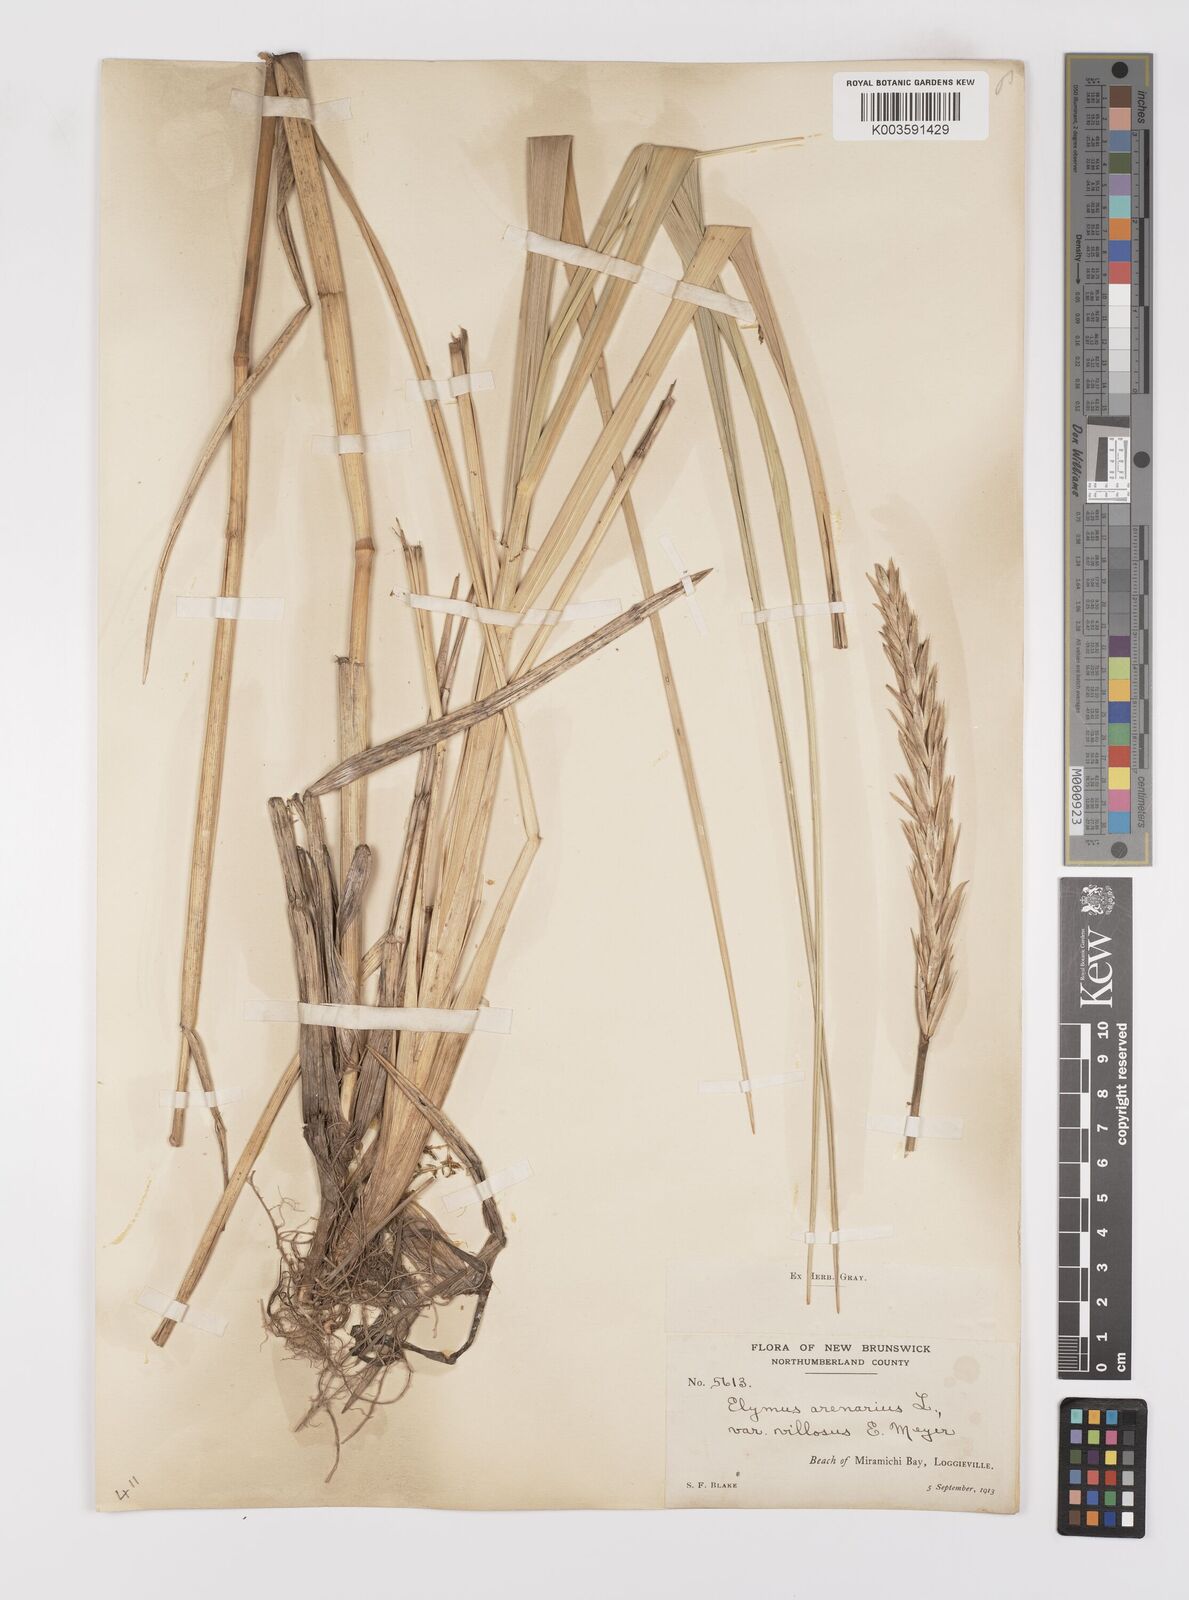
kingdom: Plantae
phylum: Tracheophyta
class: Liliopsida
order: Poales
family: Poaceae
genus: Leymus
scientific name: Leymus mollis
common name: American dune grass
